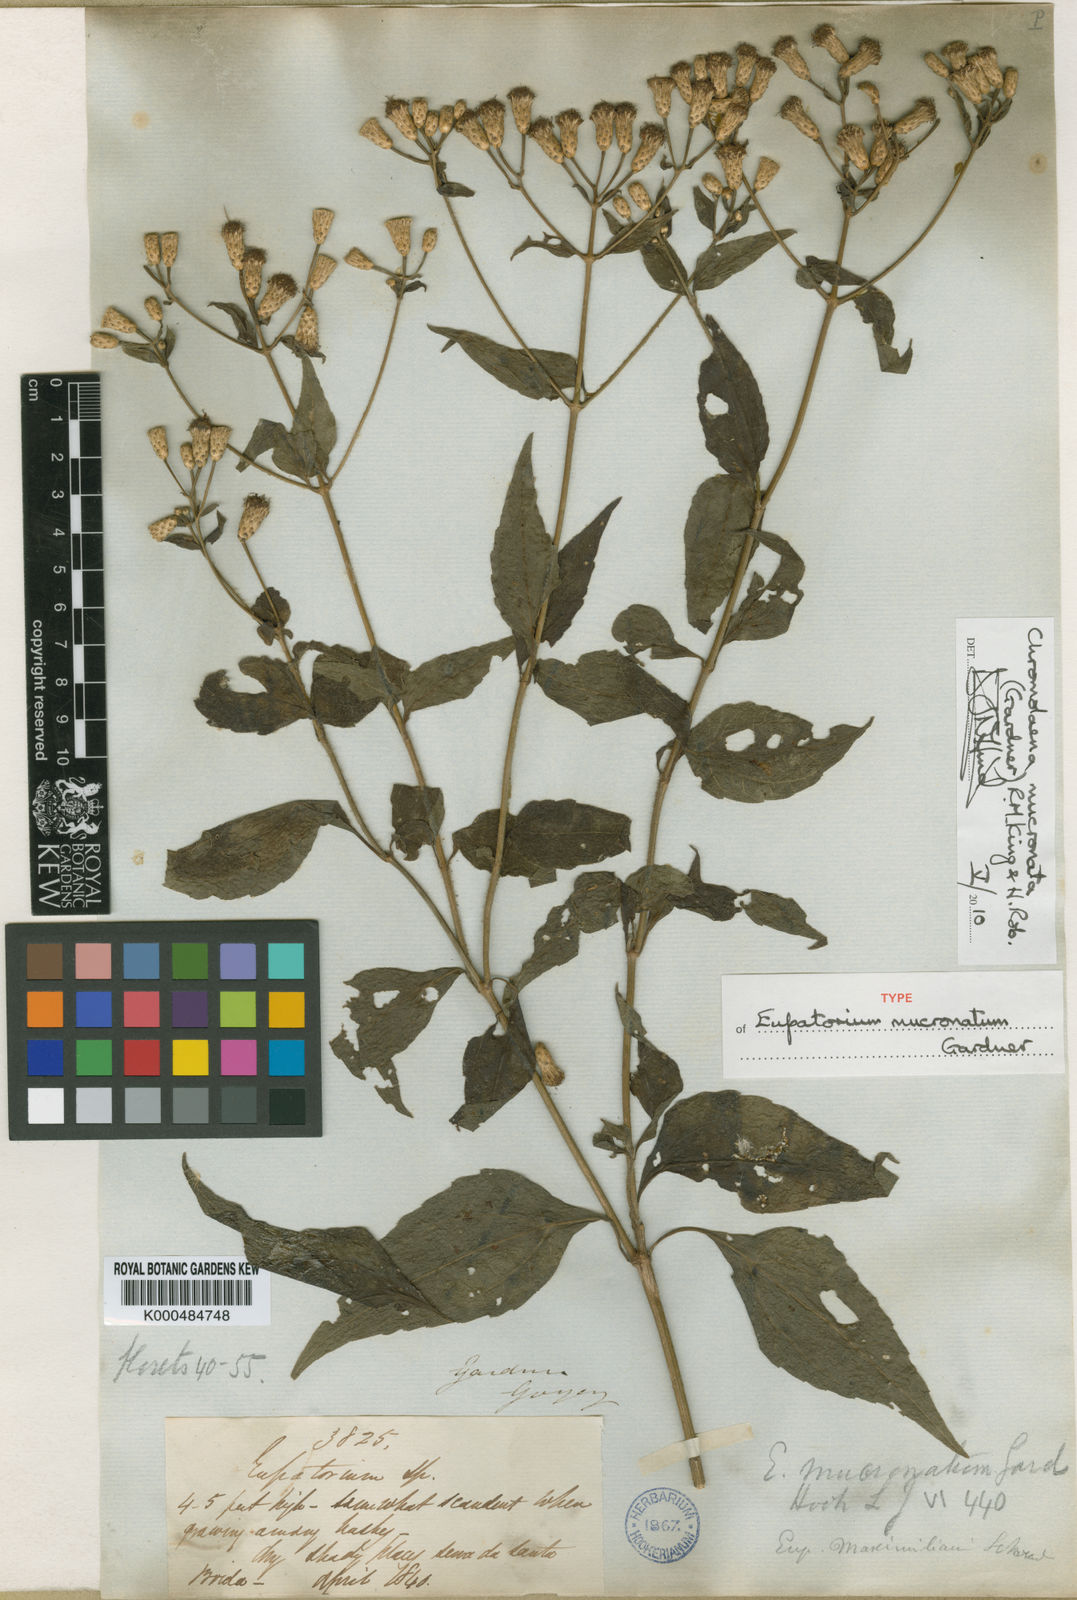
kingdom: Plantae
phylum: Tracheophyta
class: Magnoliopsida
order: Asterales
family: Asteraceae
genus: Chromolaena
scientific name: Chromolaena mucronata
